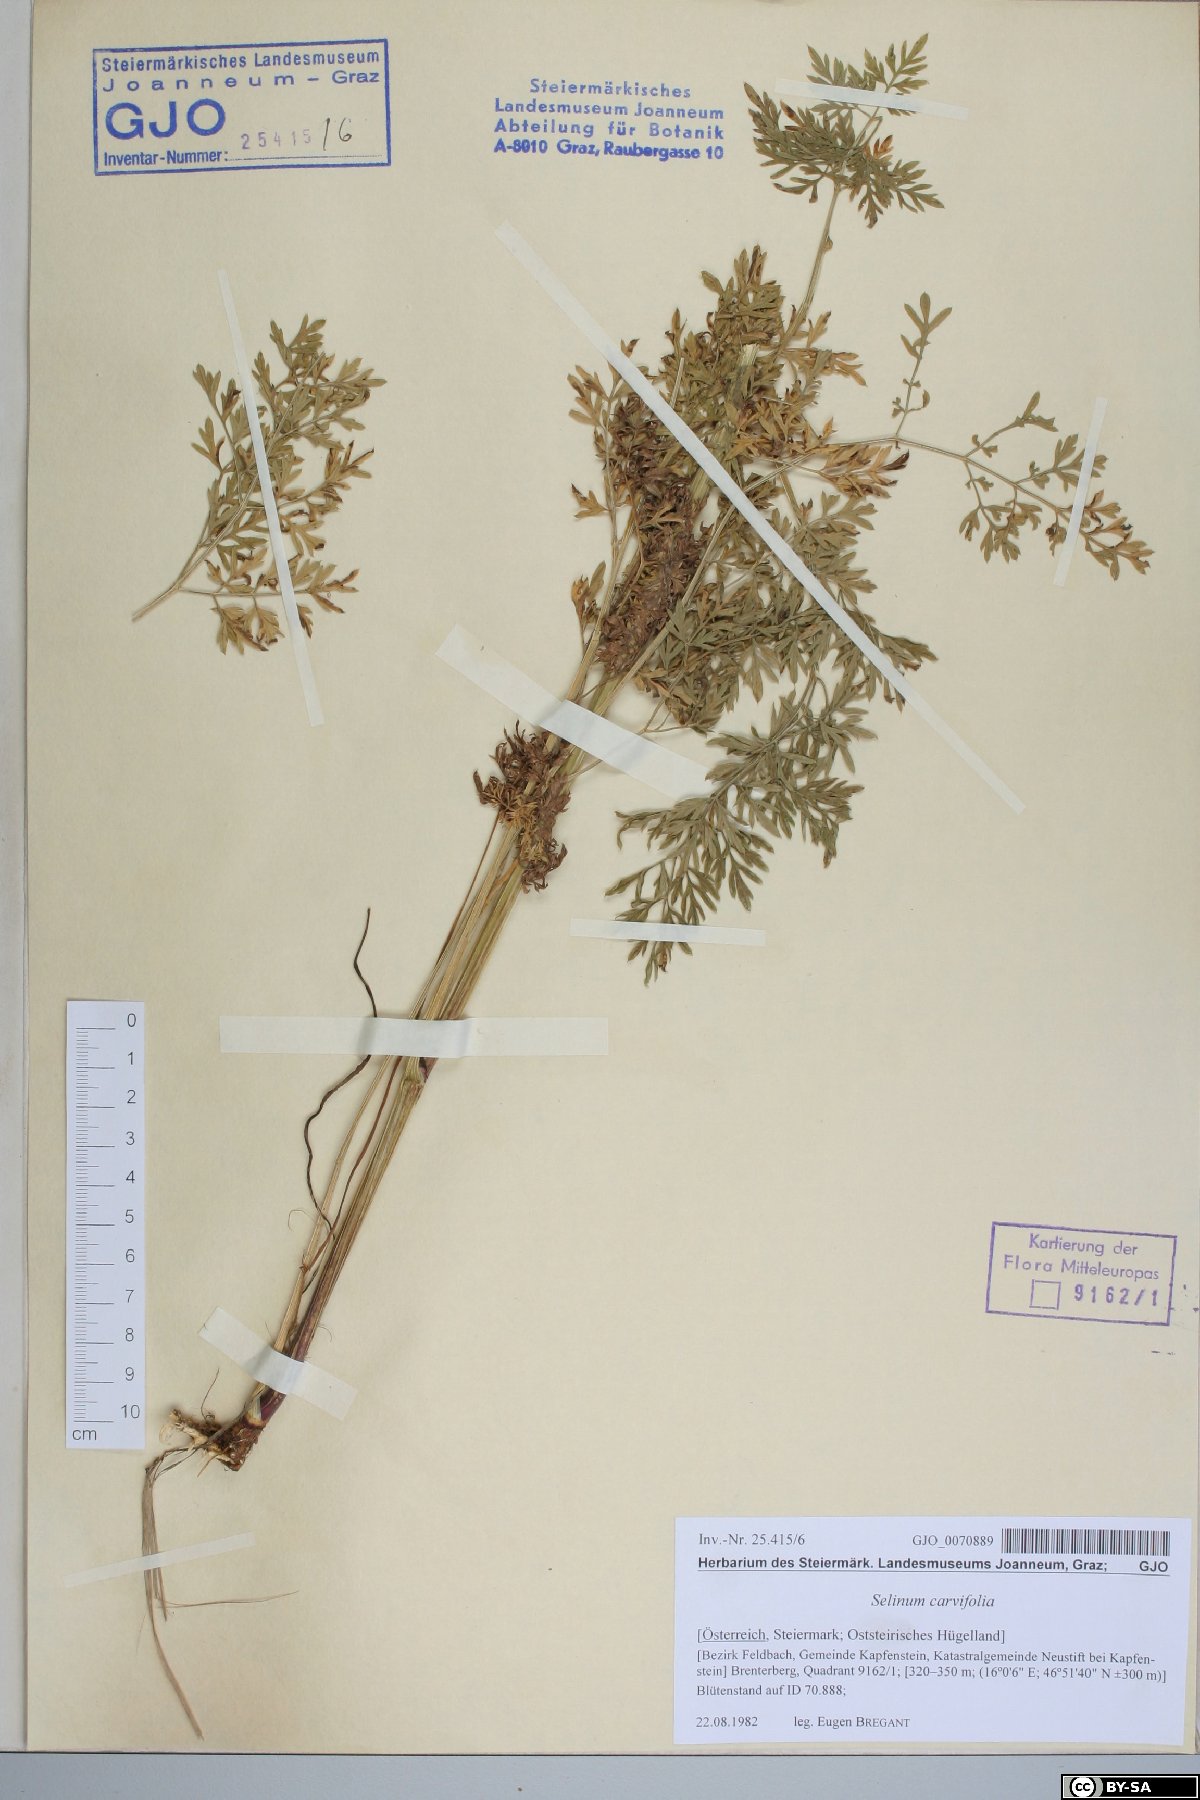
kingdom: Plantae
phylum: Tracheophyta
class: Magnoliopsida
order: Apiales
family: Apiaceae
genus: Selinum
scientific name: Selinum carvifolia
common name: Cambridge milk-parsley
